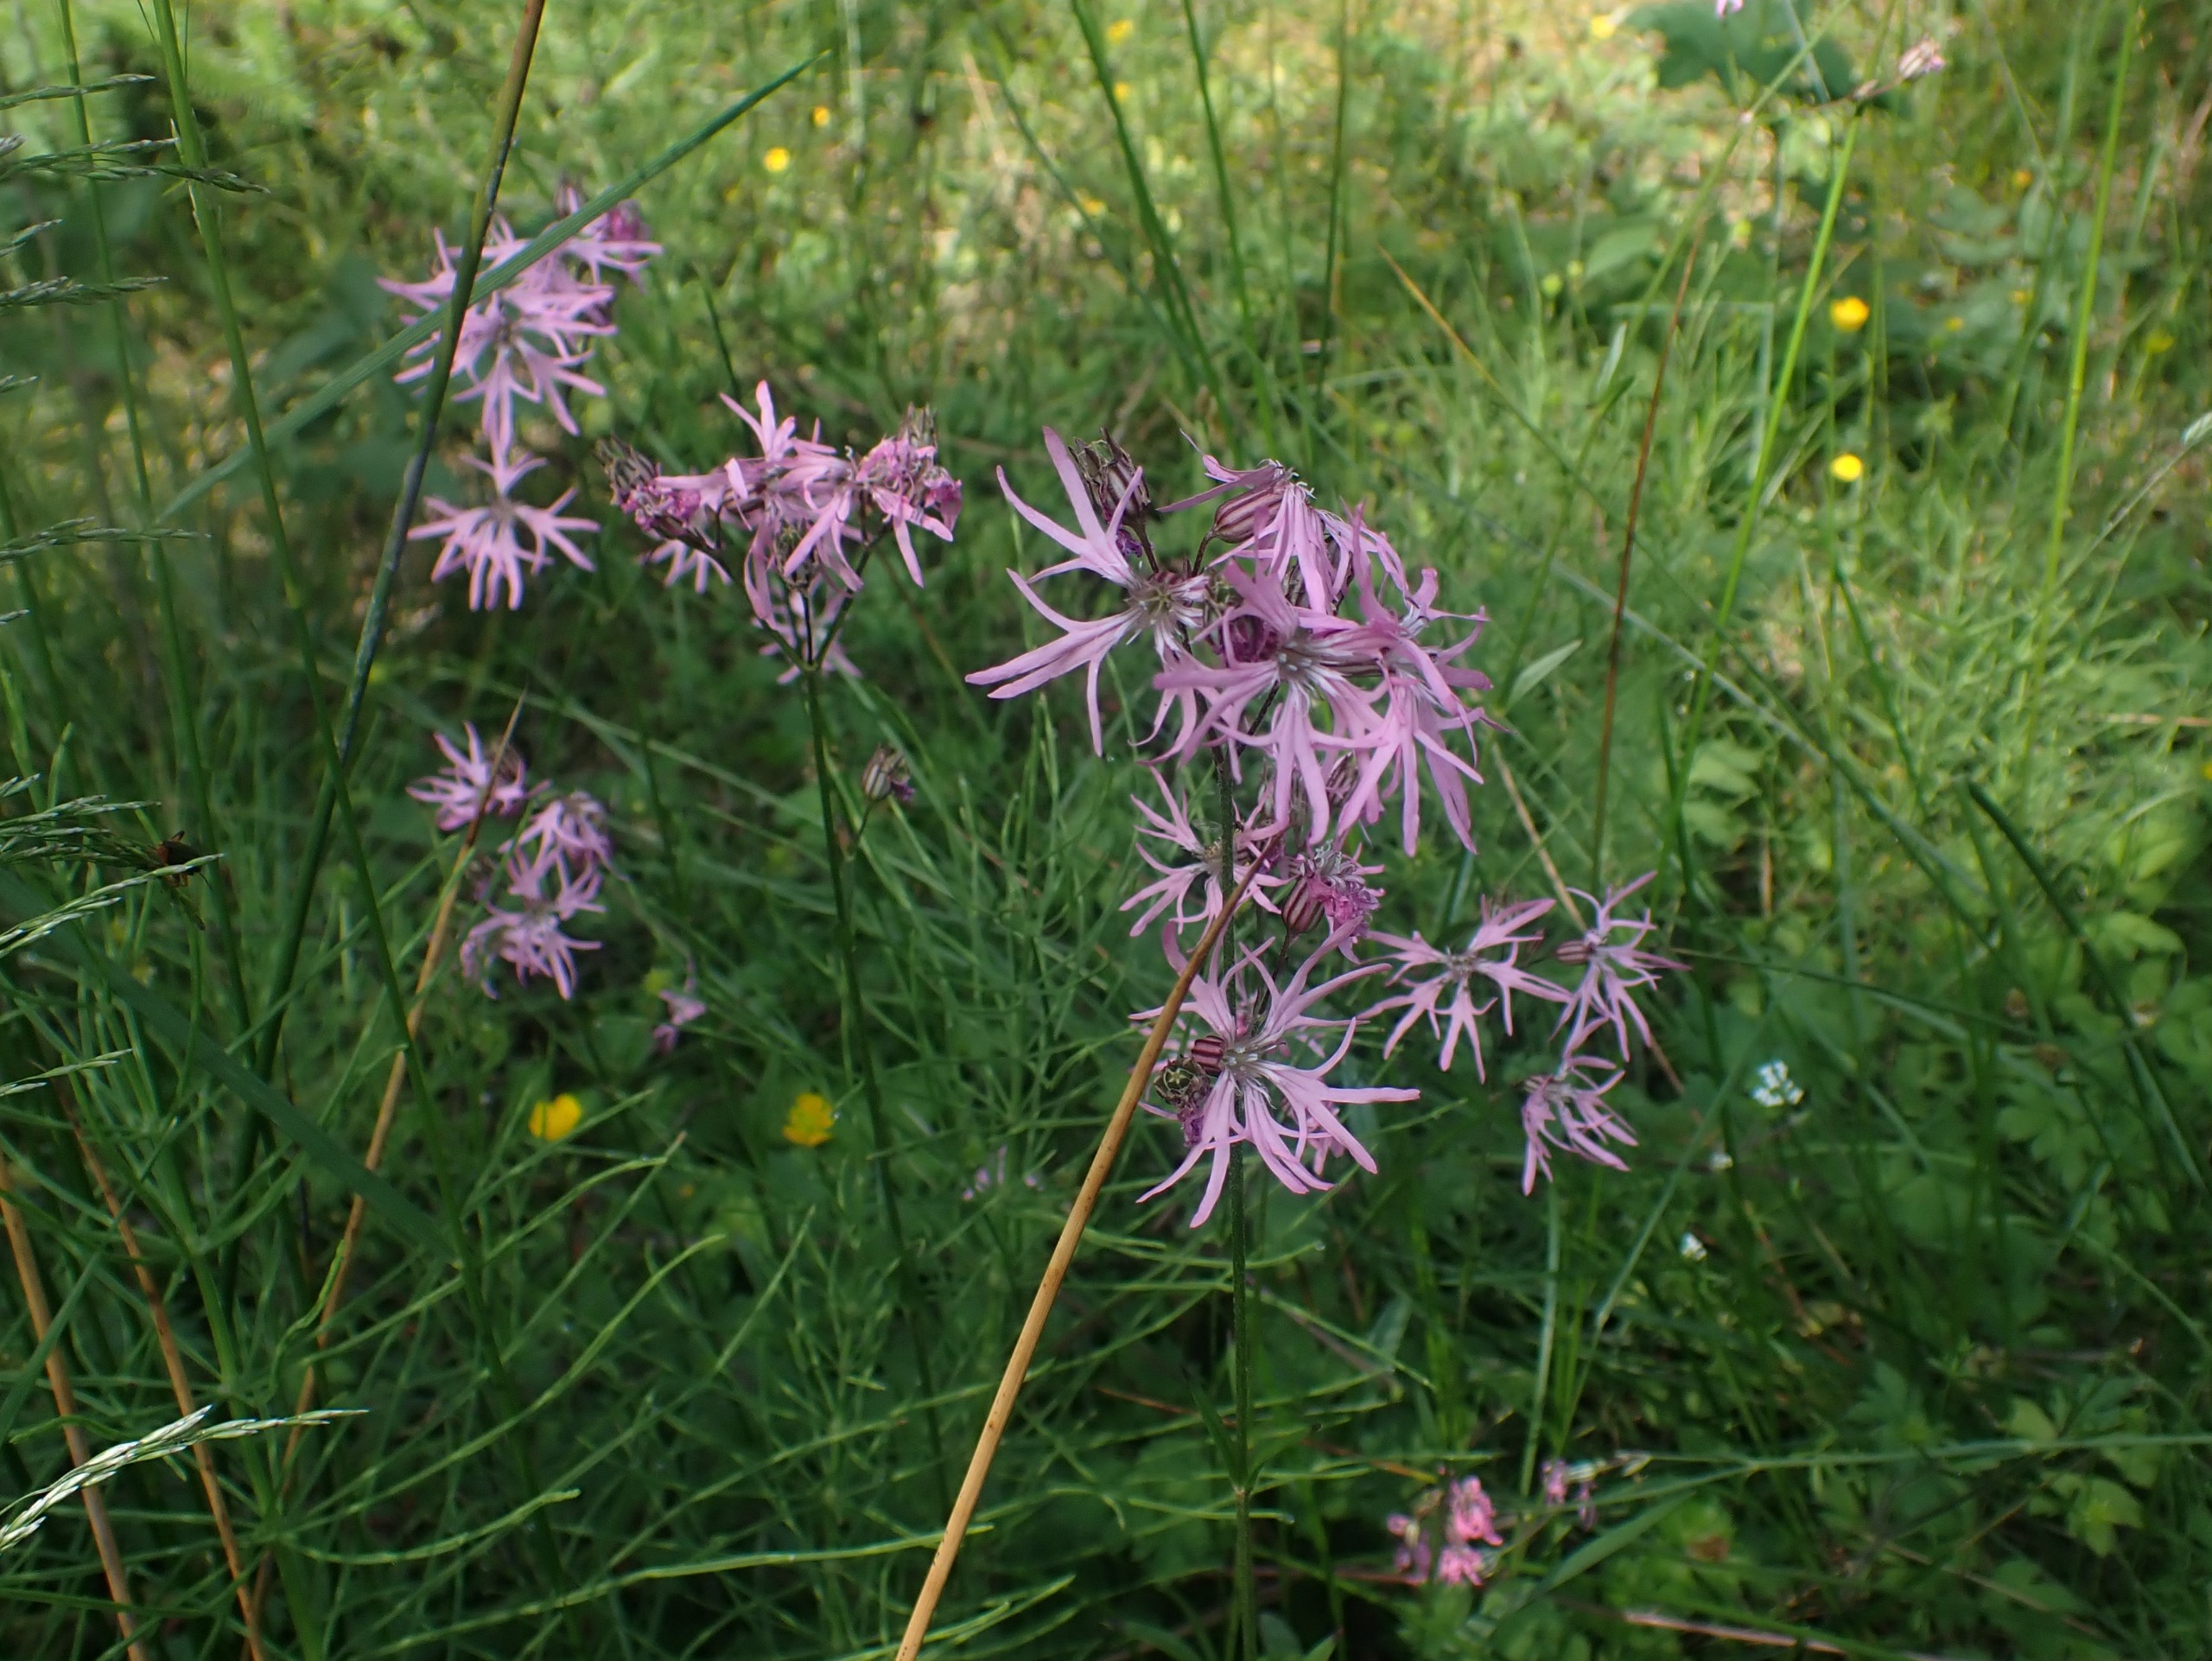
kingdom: Plantae
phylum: Tracheophyta
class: Magnoliopsida
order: Caryophyllales
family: Caryophyllaceae
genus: Silene
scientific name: Silene flos-cuculi
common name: Trævlekrone
